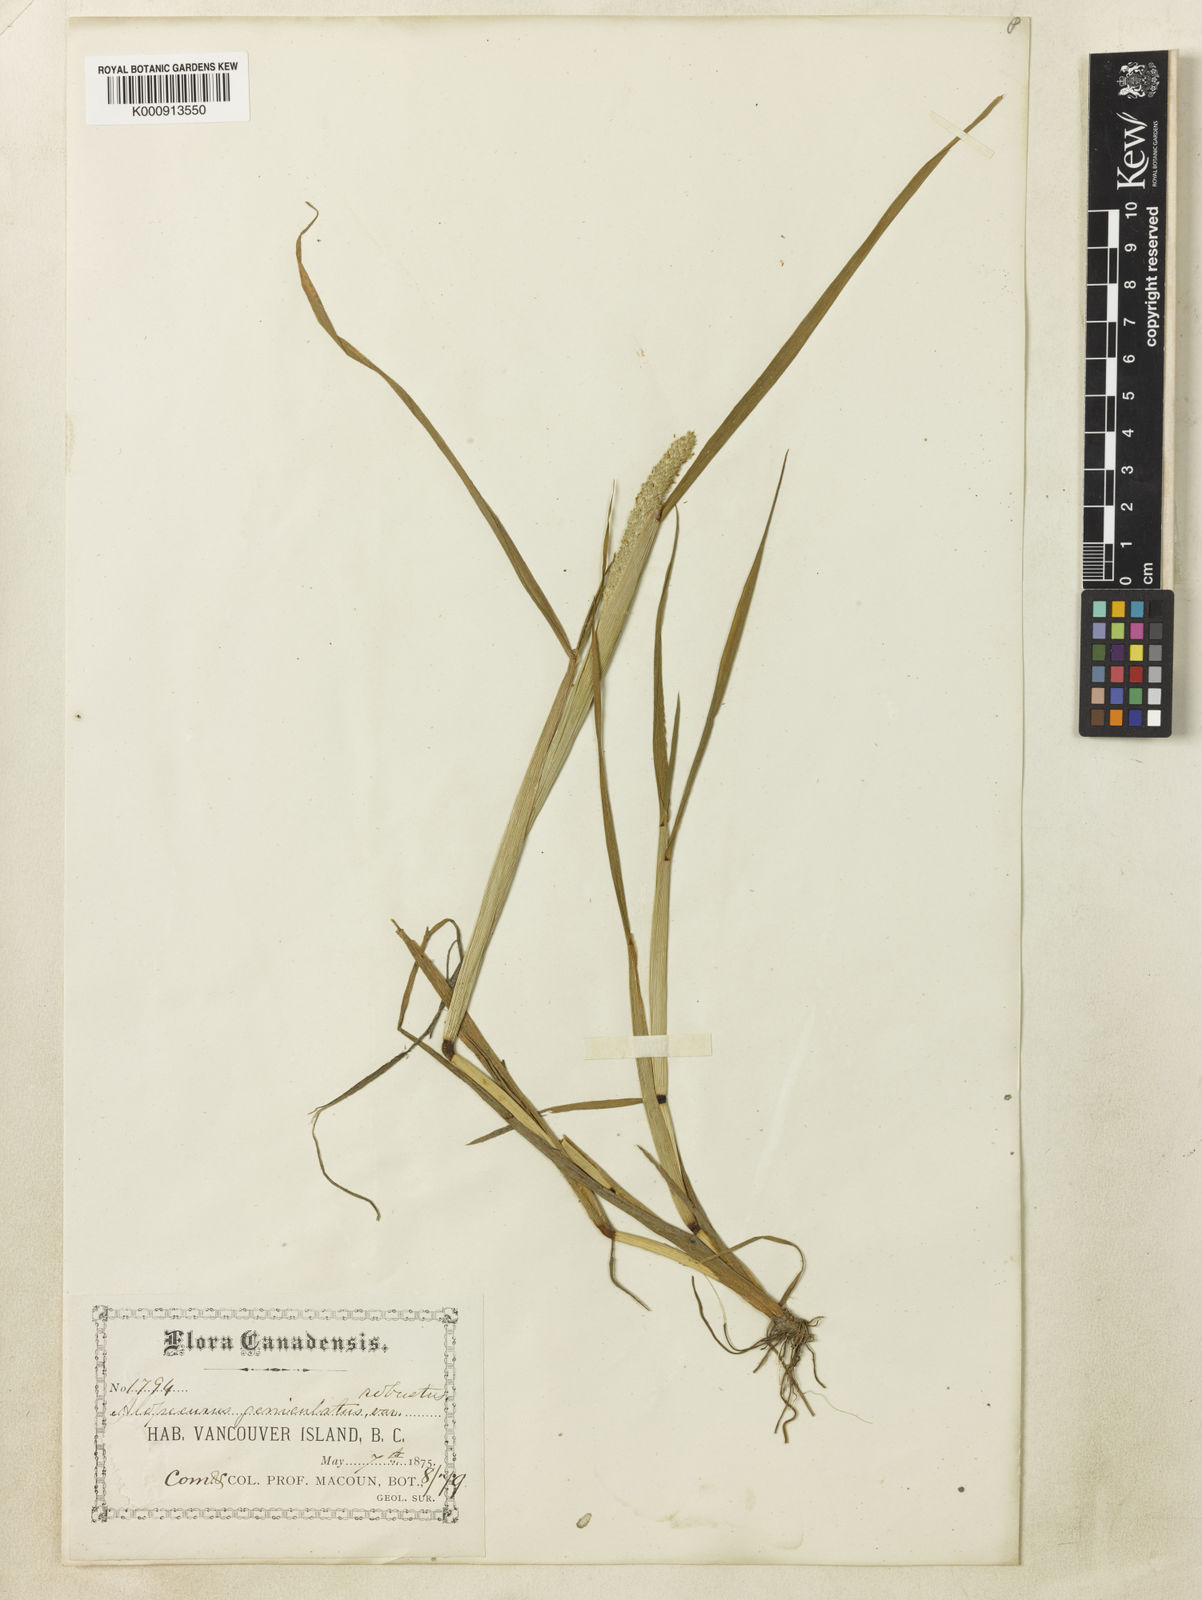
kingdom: Plantae
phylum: Tracheophyta
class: Liliopsida
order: Poales
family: Poaceae
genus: Alopecurus
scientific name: Alopecurus aequalis
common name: Orange foxtail
